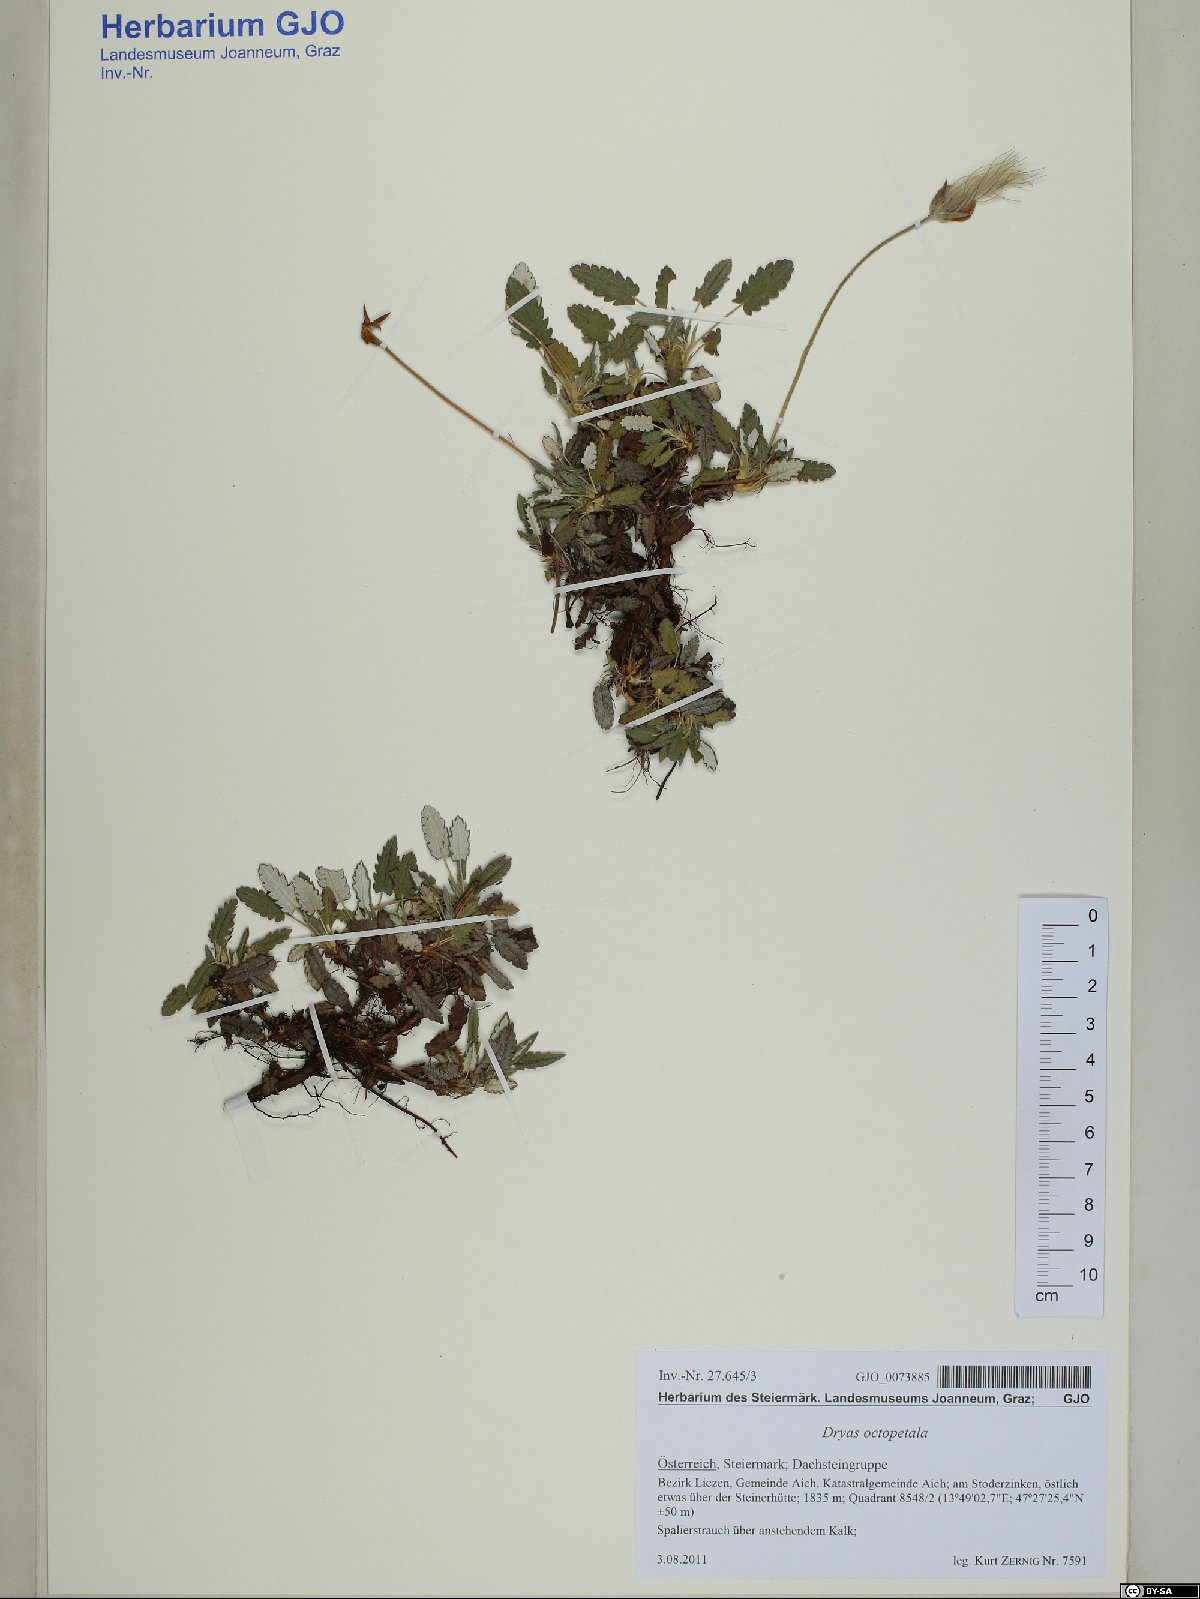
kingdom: Plantae
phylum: Tracheophyta
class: Magnoliopsida
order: Rosales
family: Rosaceae
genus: Dryas
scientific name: Dryas octopetala
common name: Eight-petal mountain-avens
